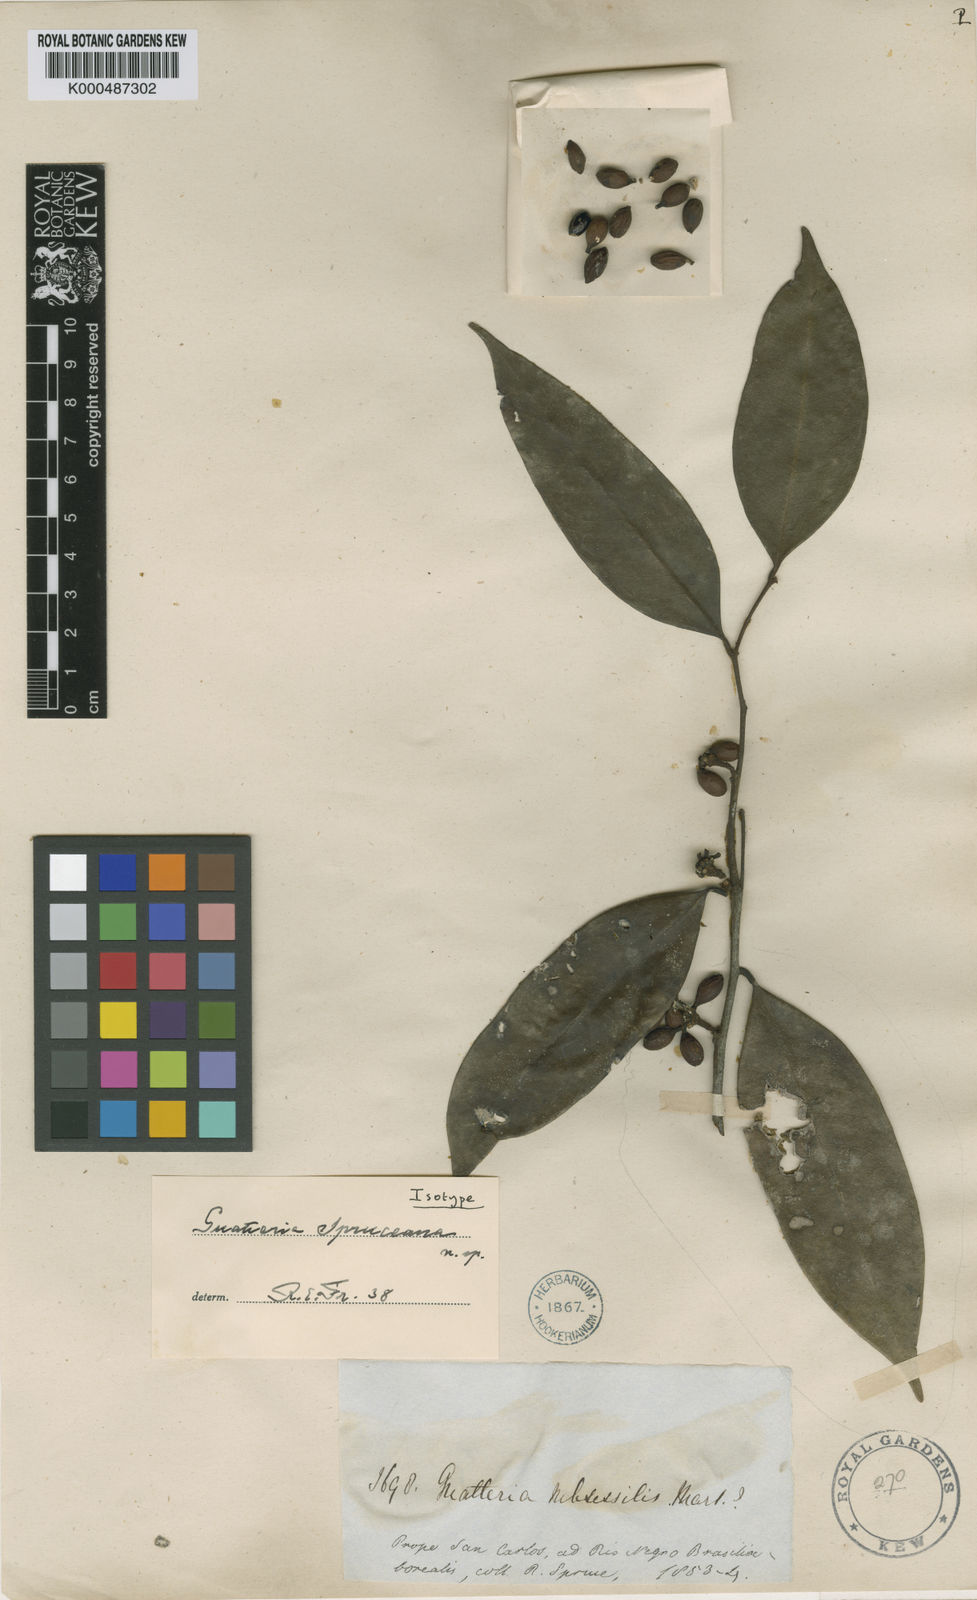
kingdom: Plantae
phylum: Tracheophyta
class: Magnoliopsida
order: Magnoliales
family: Annonaceae
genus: Guatteria
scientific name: Guatteria schomburgkiana
